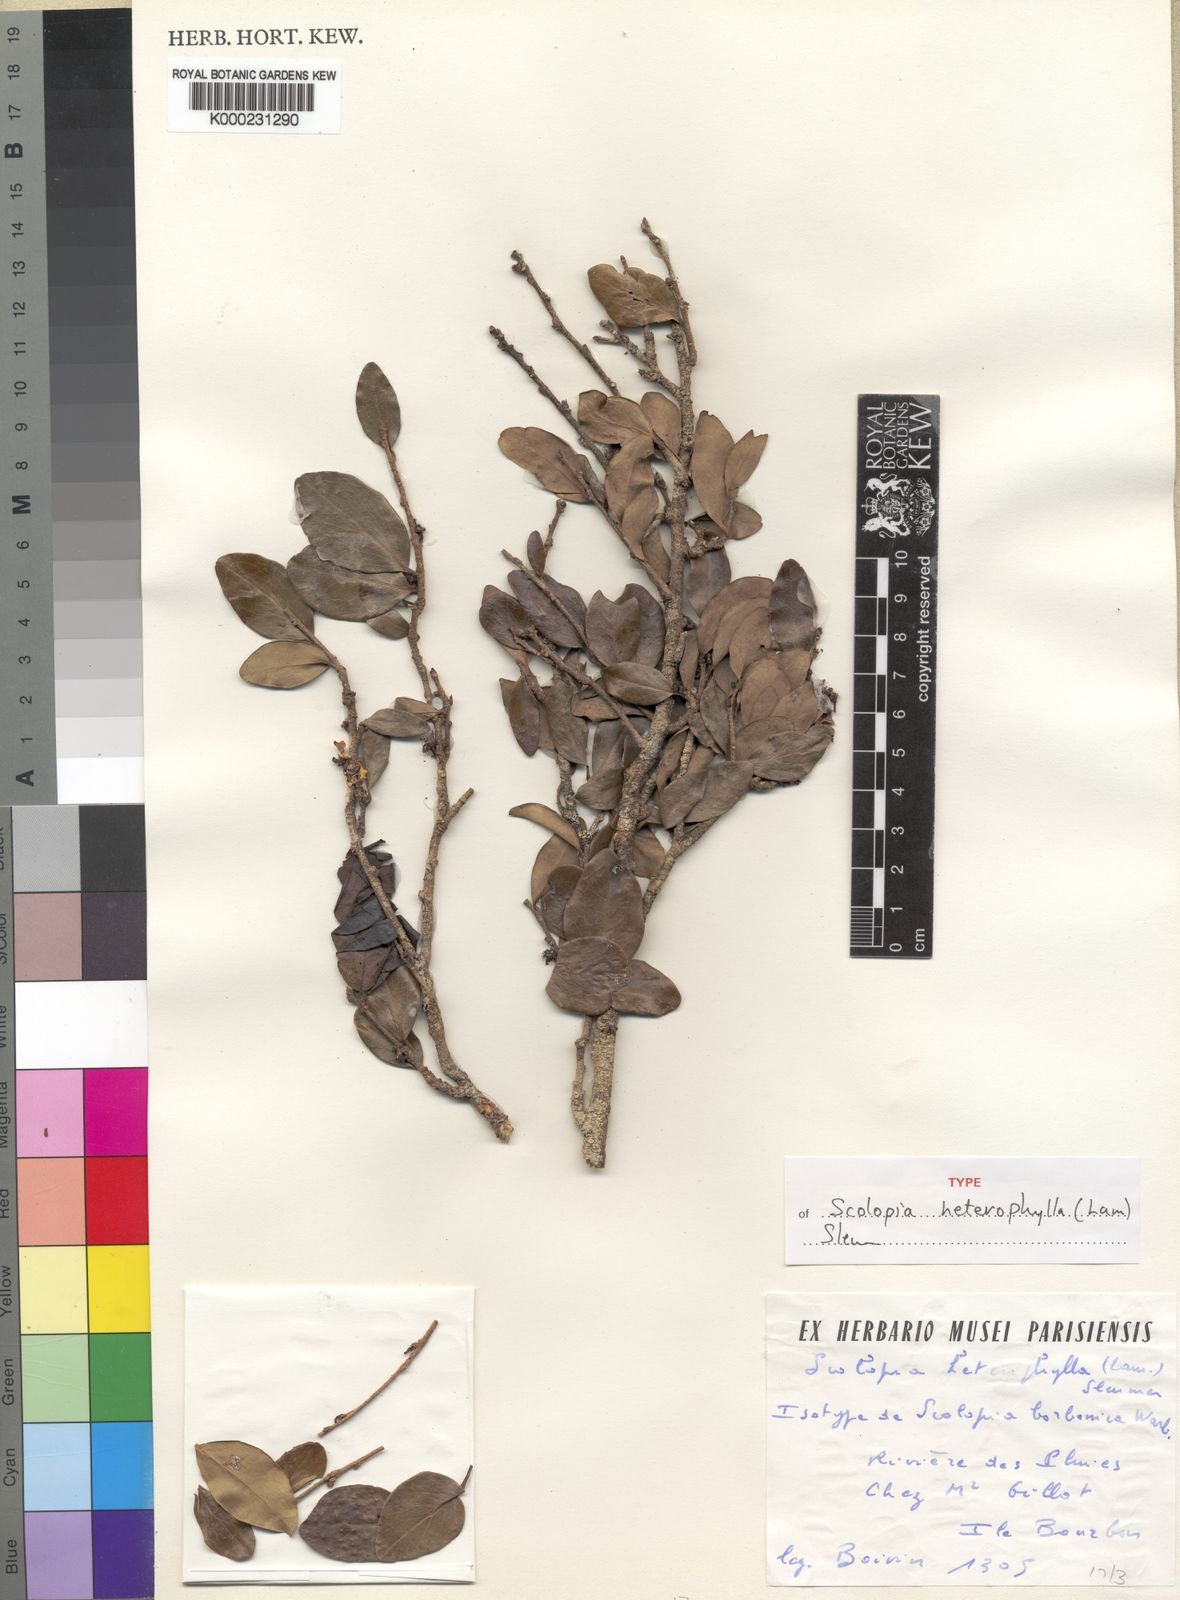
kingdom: Plantae
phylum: Tracheophyta
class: Magnoliopsida
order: Malpighiales
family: Salicaceae
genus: Scolopia
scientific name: Scolopia heterophylla
